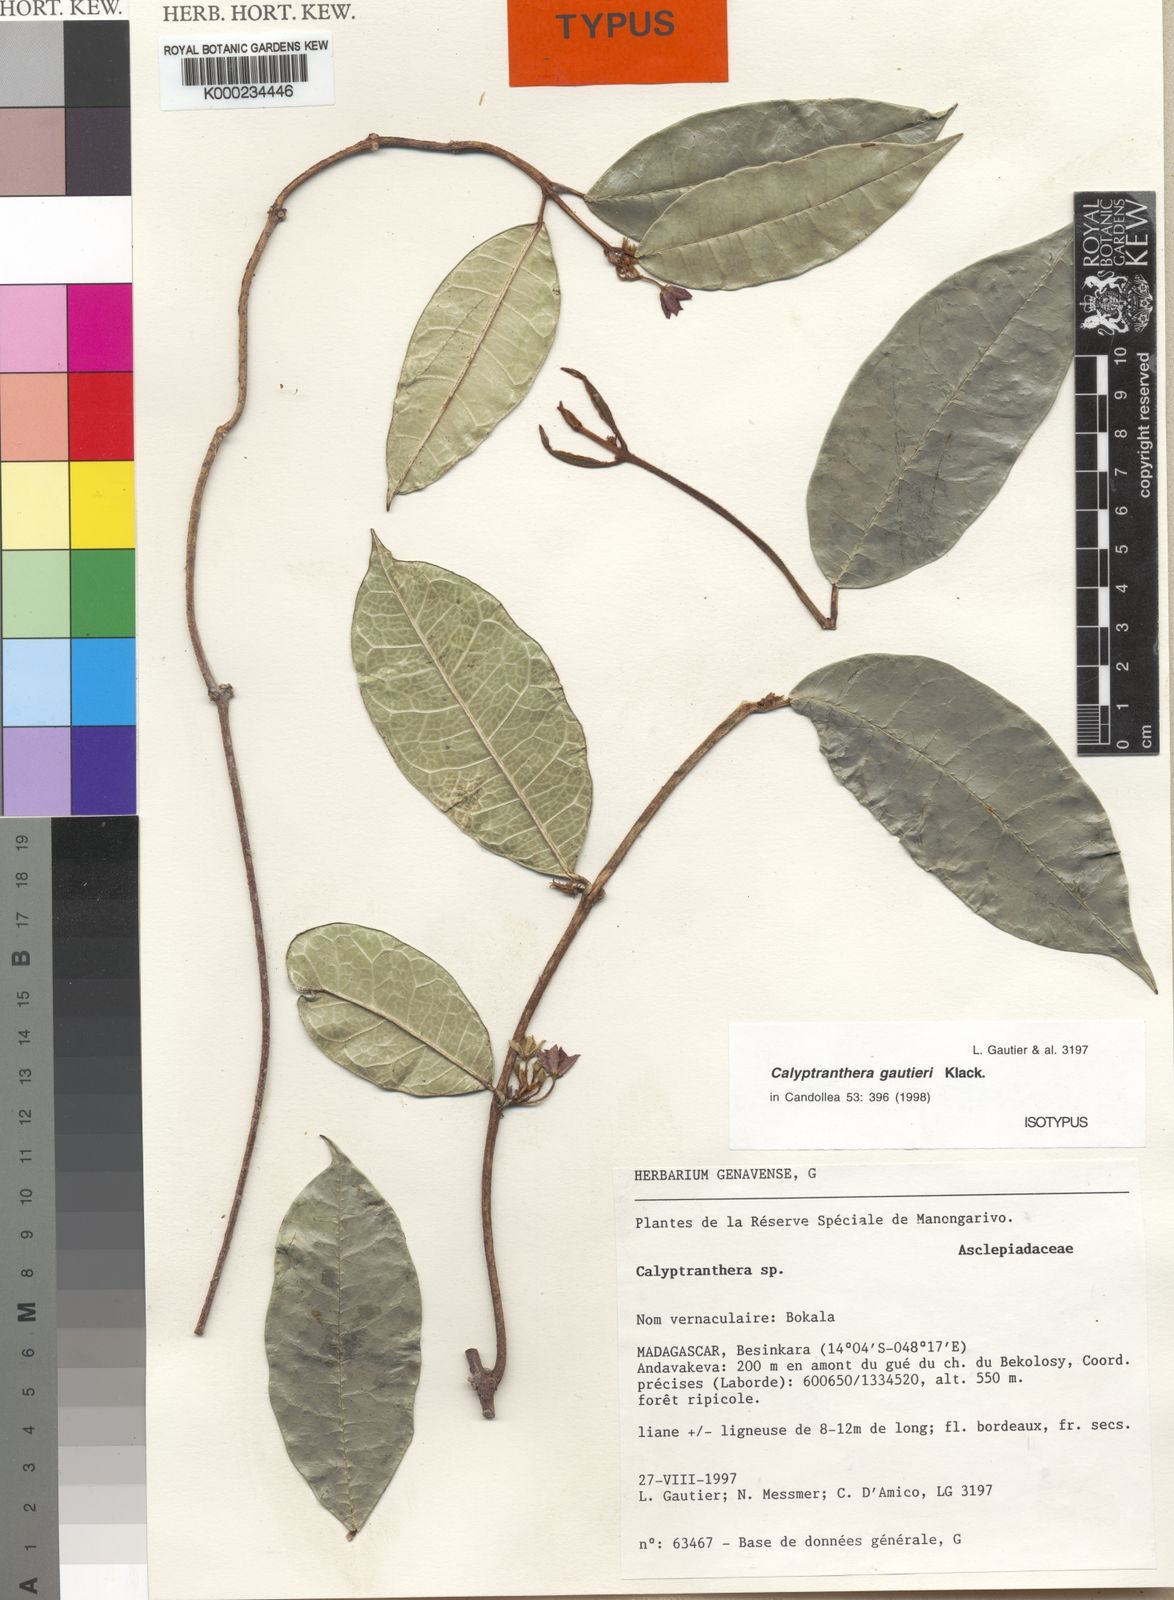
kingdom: Plantae
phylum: Tracheophyta
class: Magnoliopsida
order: Gentianales
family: Apocynaceae
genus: Calyptranthera
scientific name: Calyptranthera gautieri
